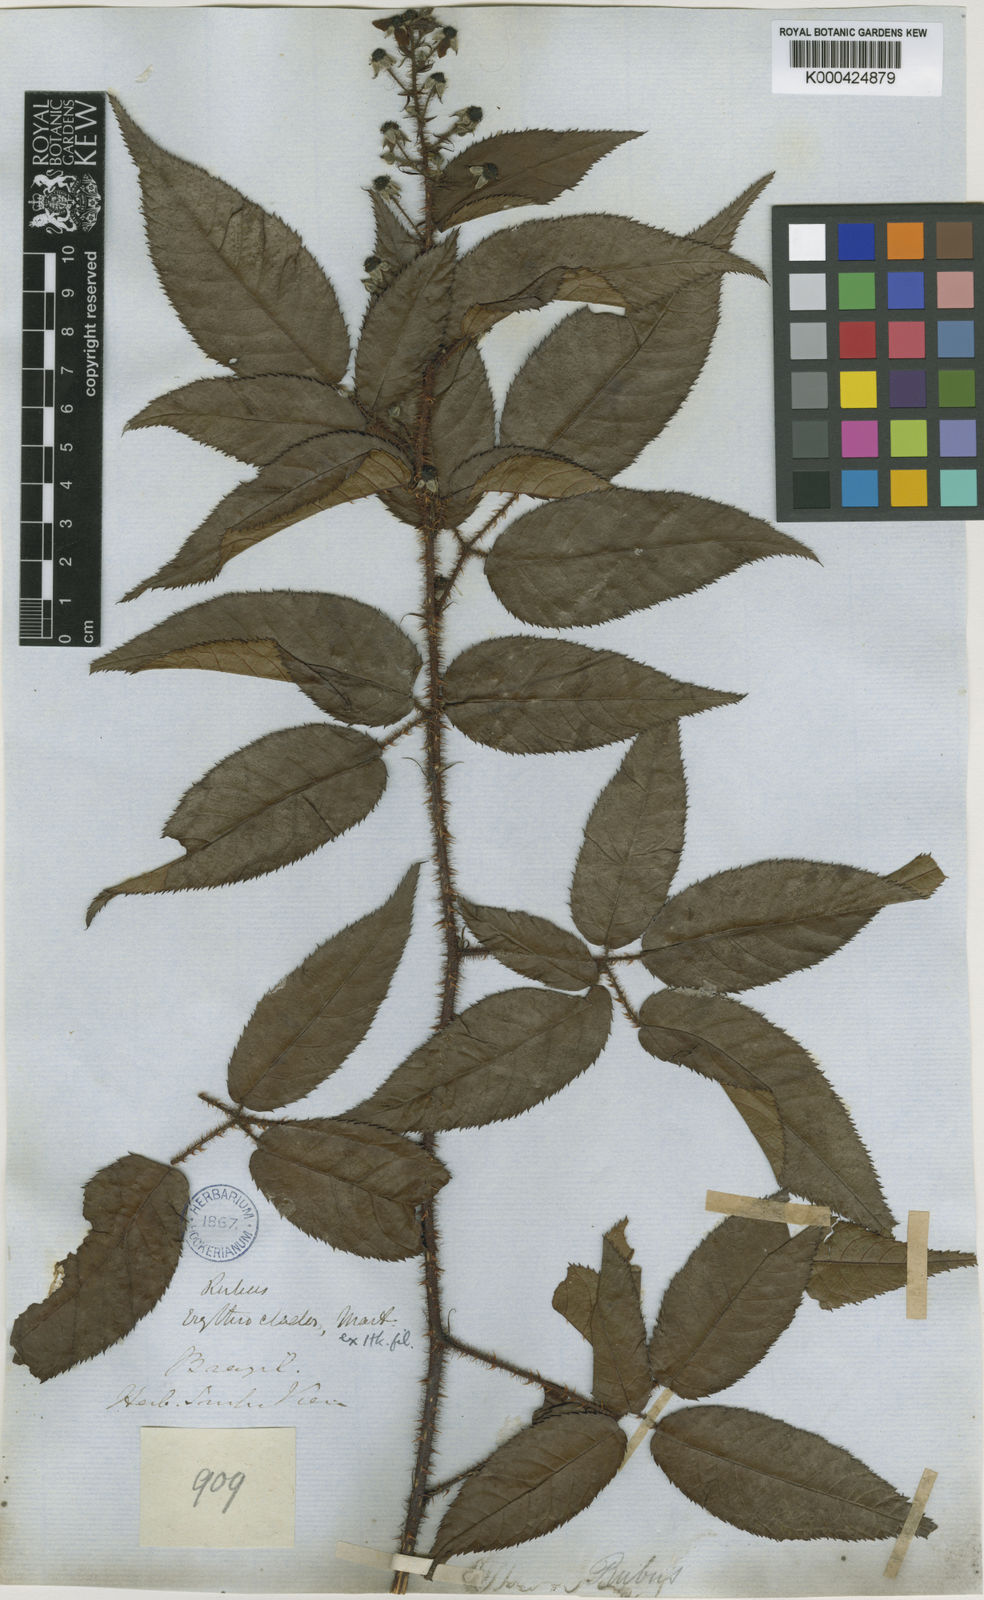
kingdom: Plantae
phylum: Tracheophyta
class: Magnoliopsida
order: Rosales
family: Rosaceae
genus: Rubus
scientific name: Rubus
